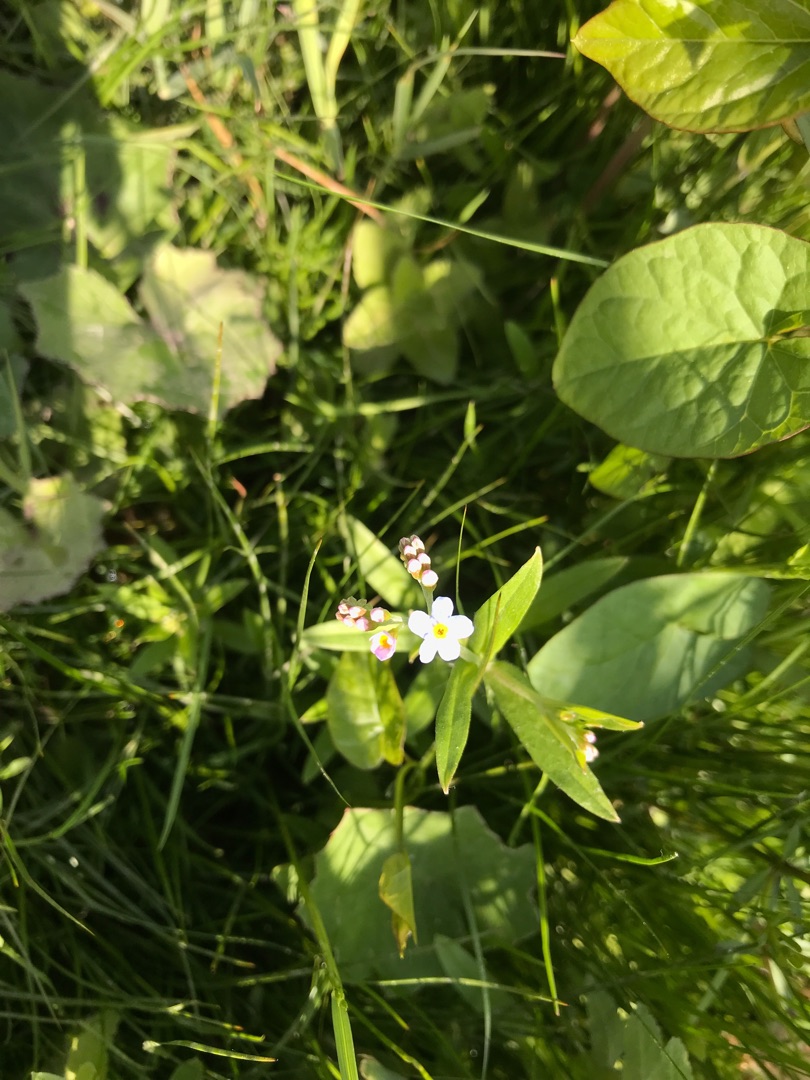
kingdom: Plantae
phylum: Tracheophyta
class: Magnoliopsida
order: Boraginales
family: Boraginaceae
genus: Myosotis
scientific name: Myosotis scorpioides
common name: Eng-forglemmigej
